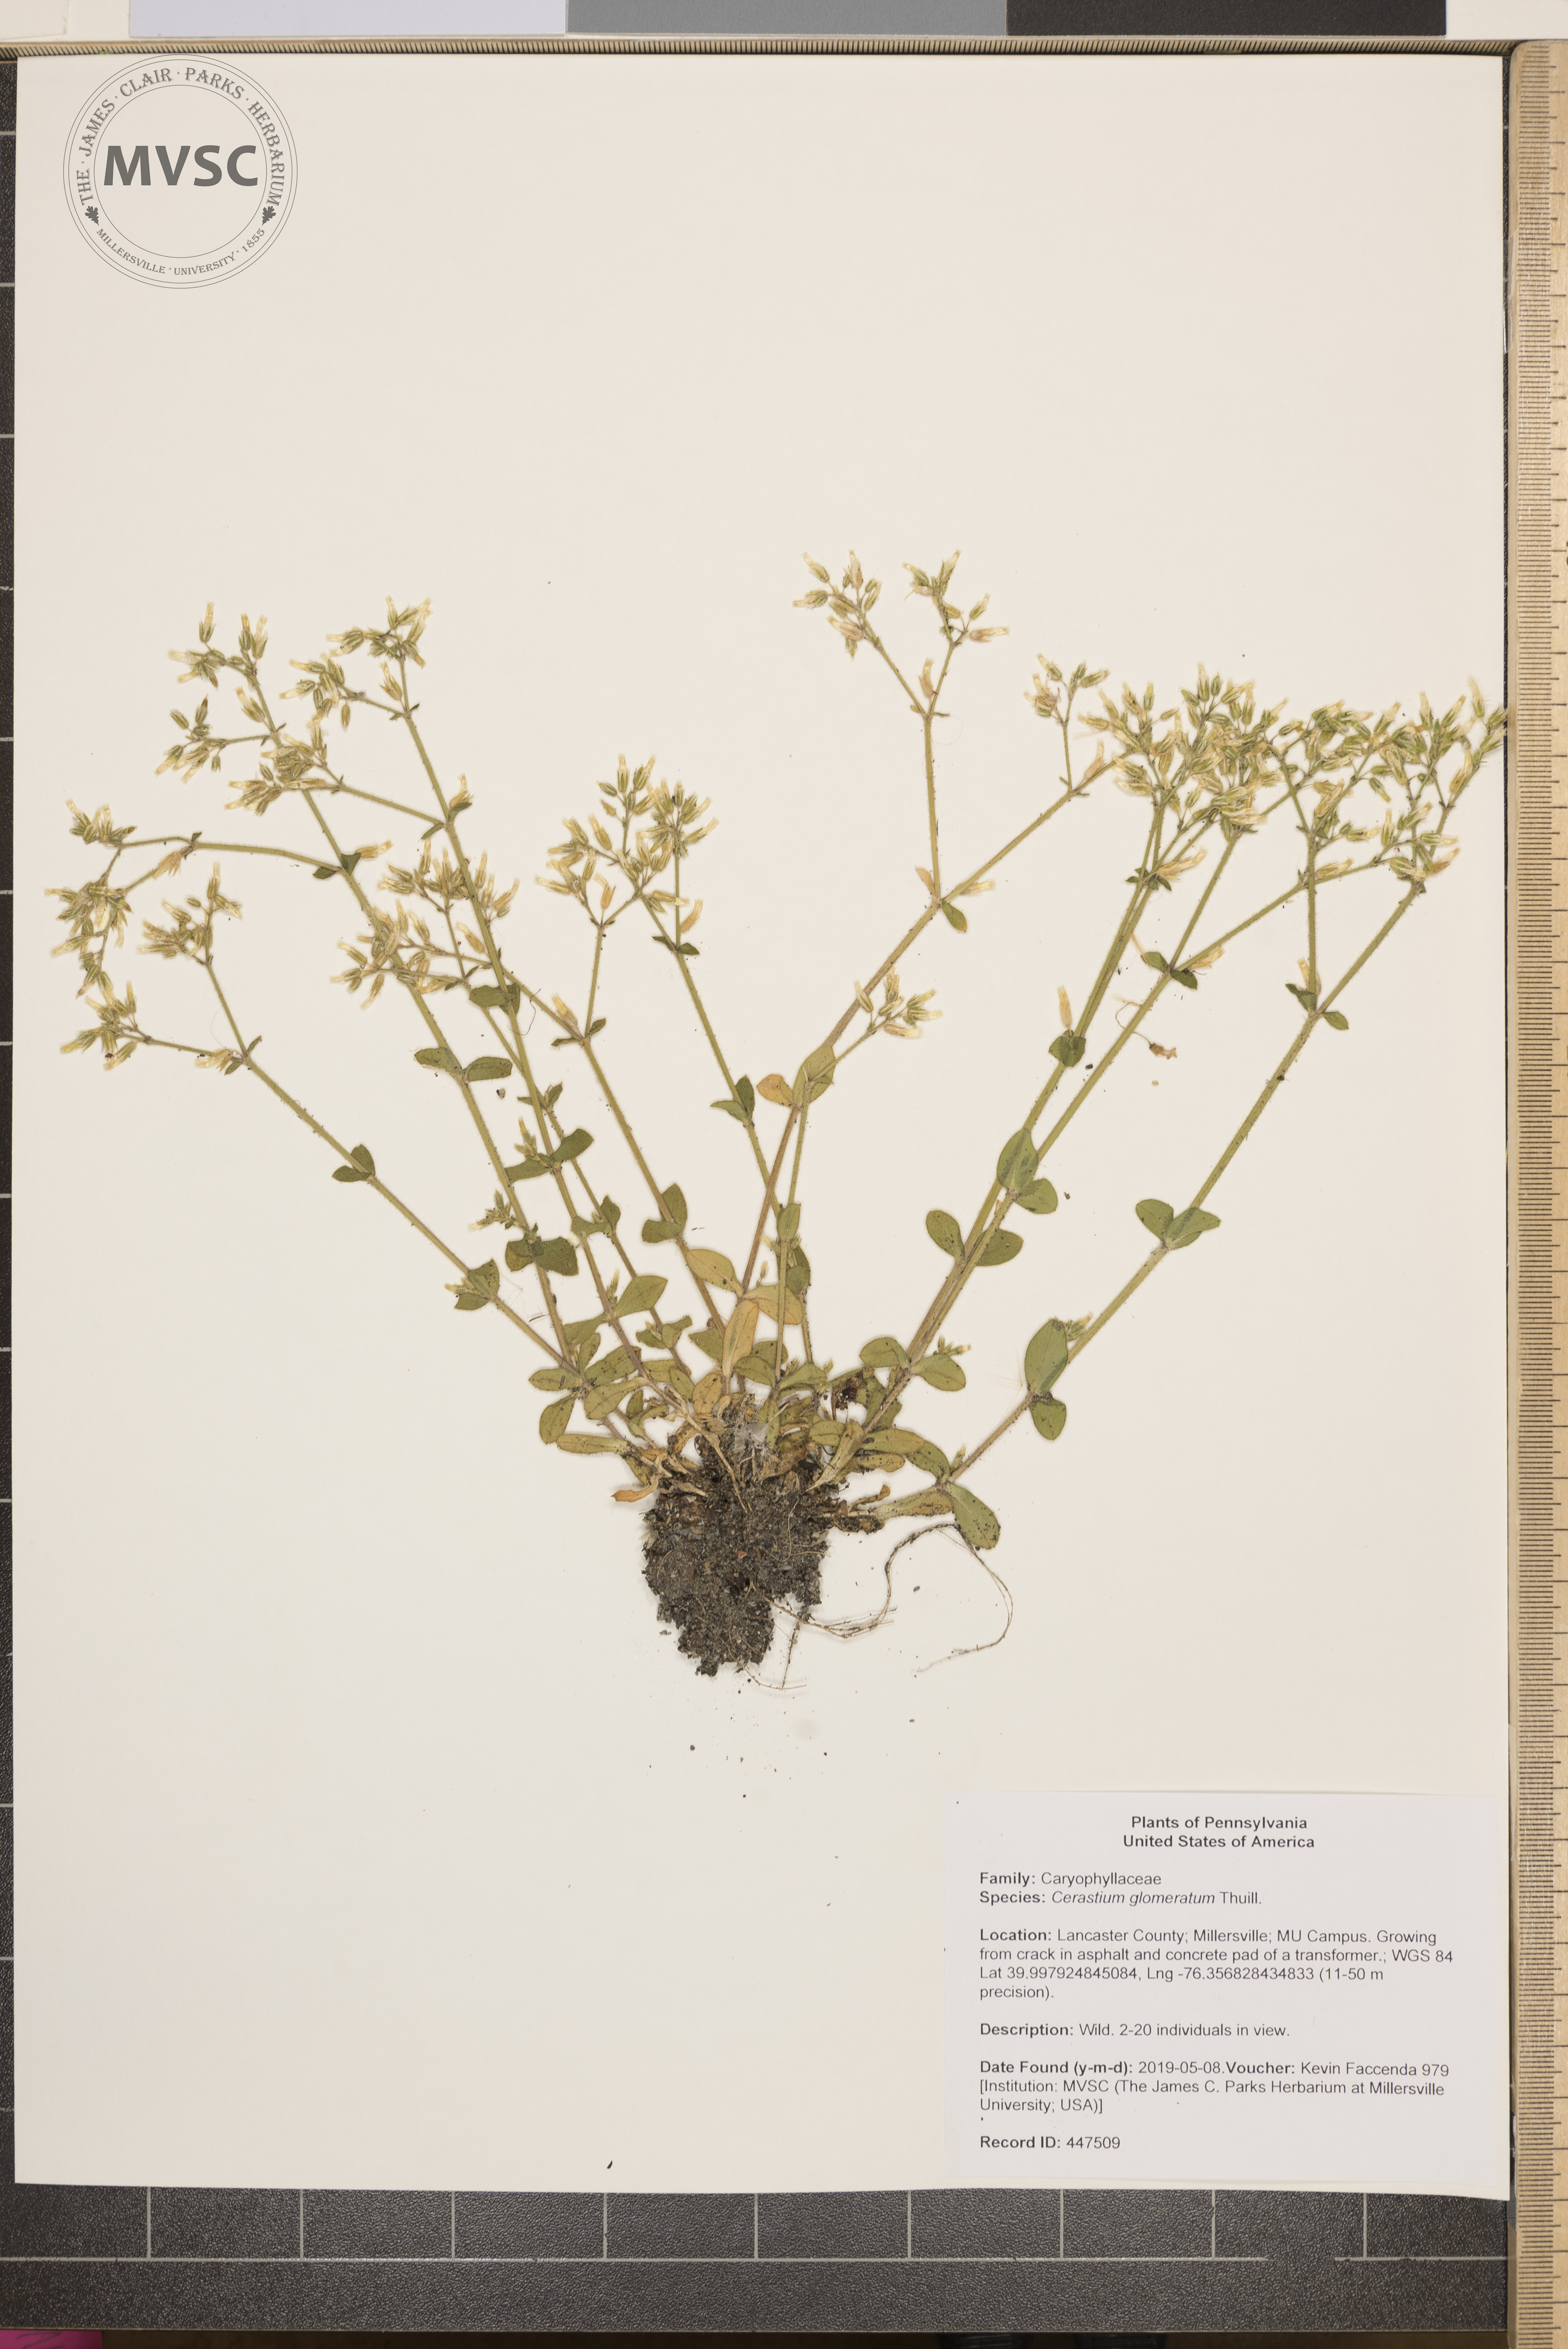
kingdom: Plantae
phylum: Tracheophyta
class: Magnoliopsida
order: Caryophyllales
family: Caryophyllaceae
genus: Cerastium
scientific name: Cerastium glomeratum
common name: Sticky chickweed
